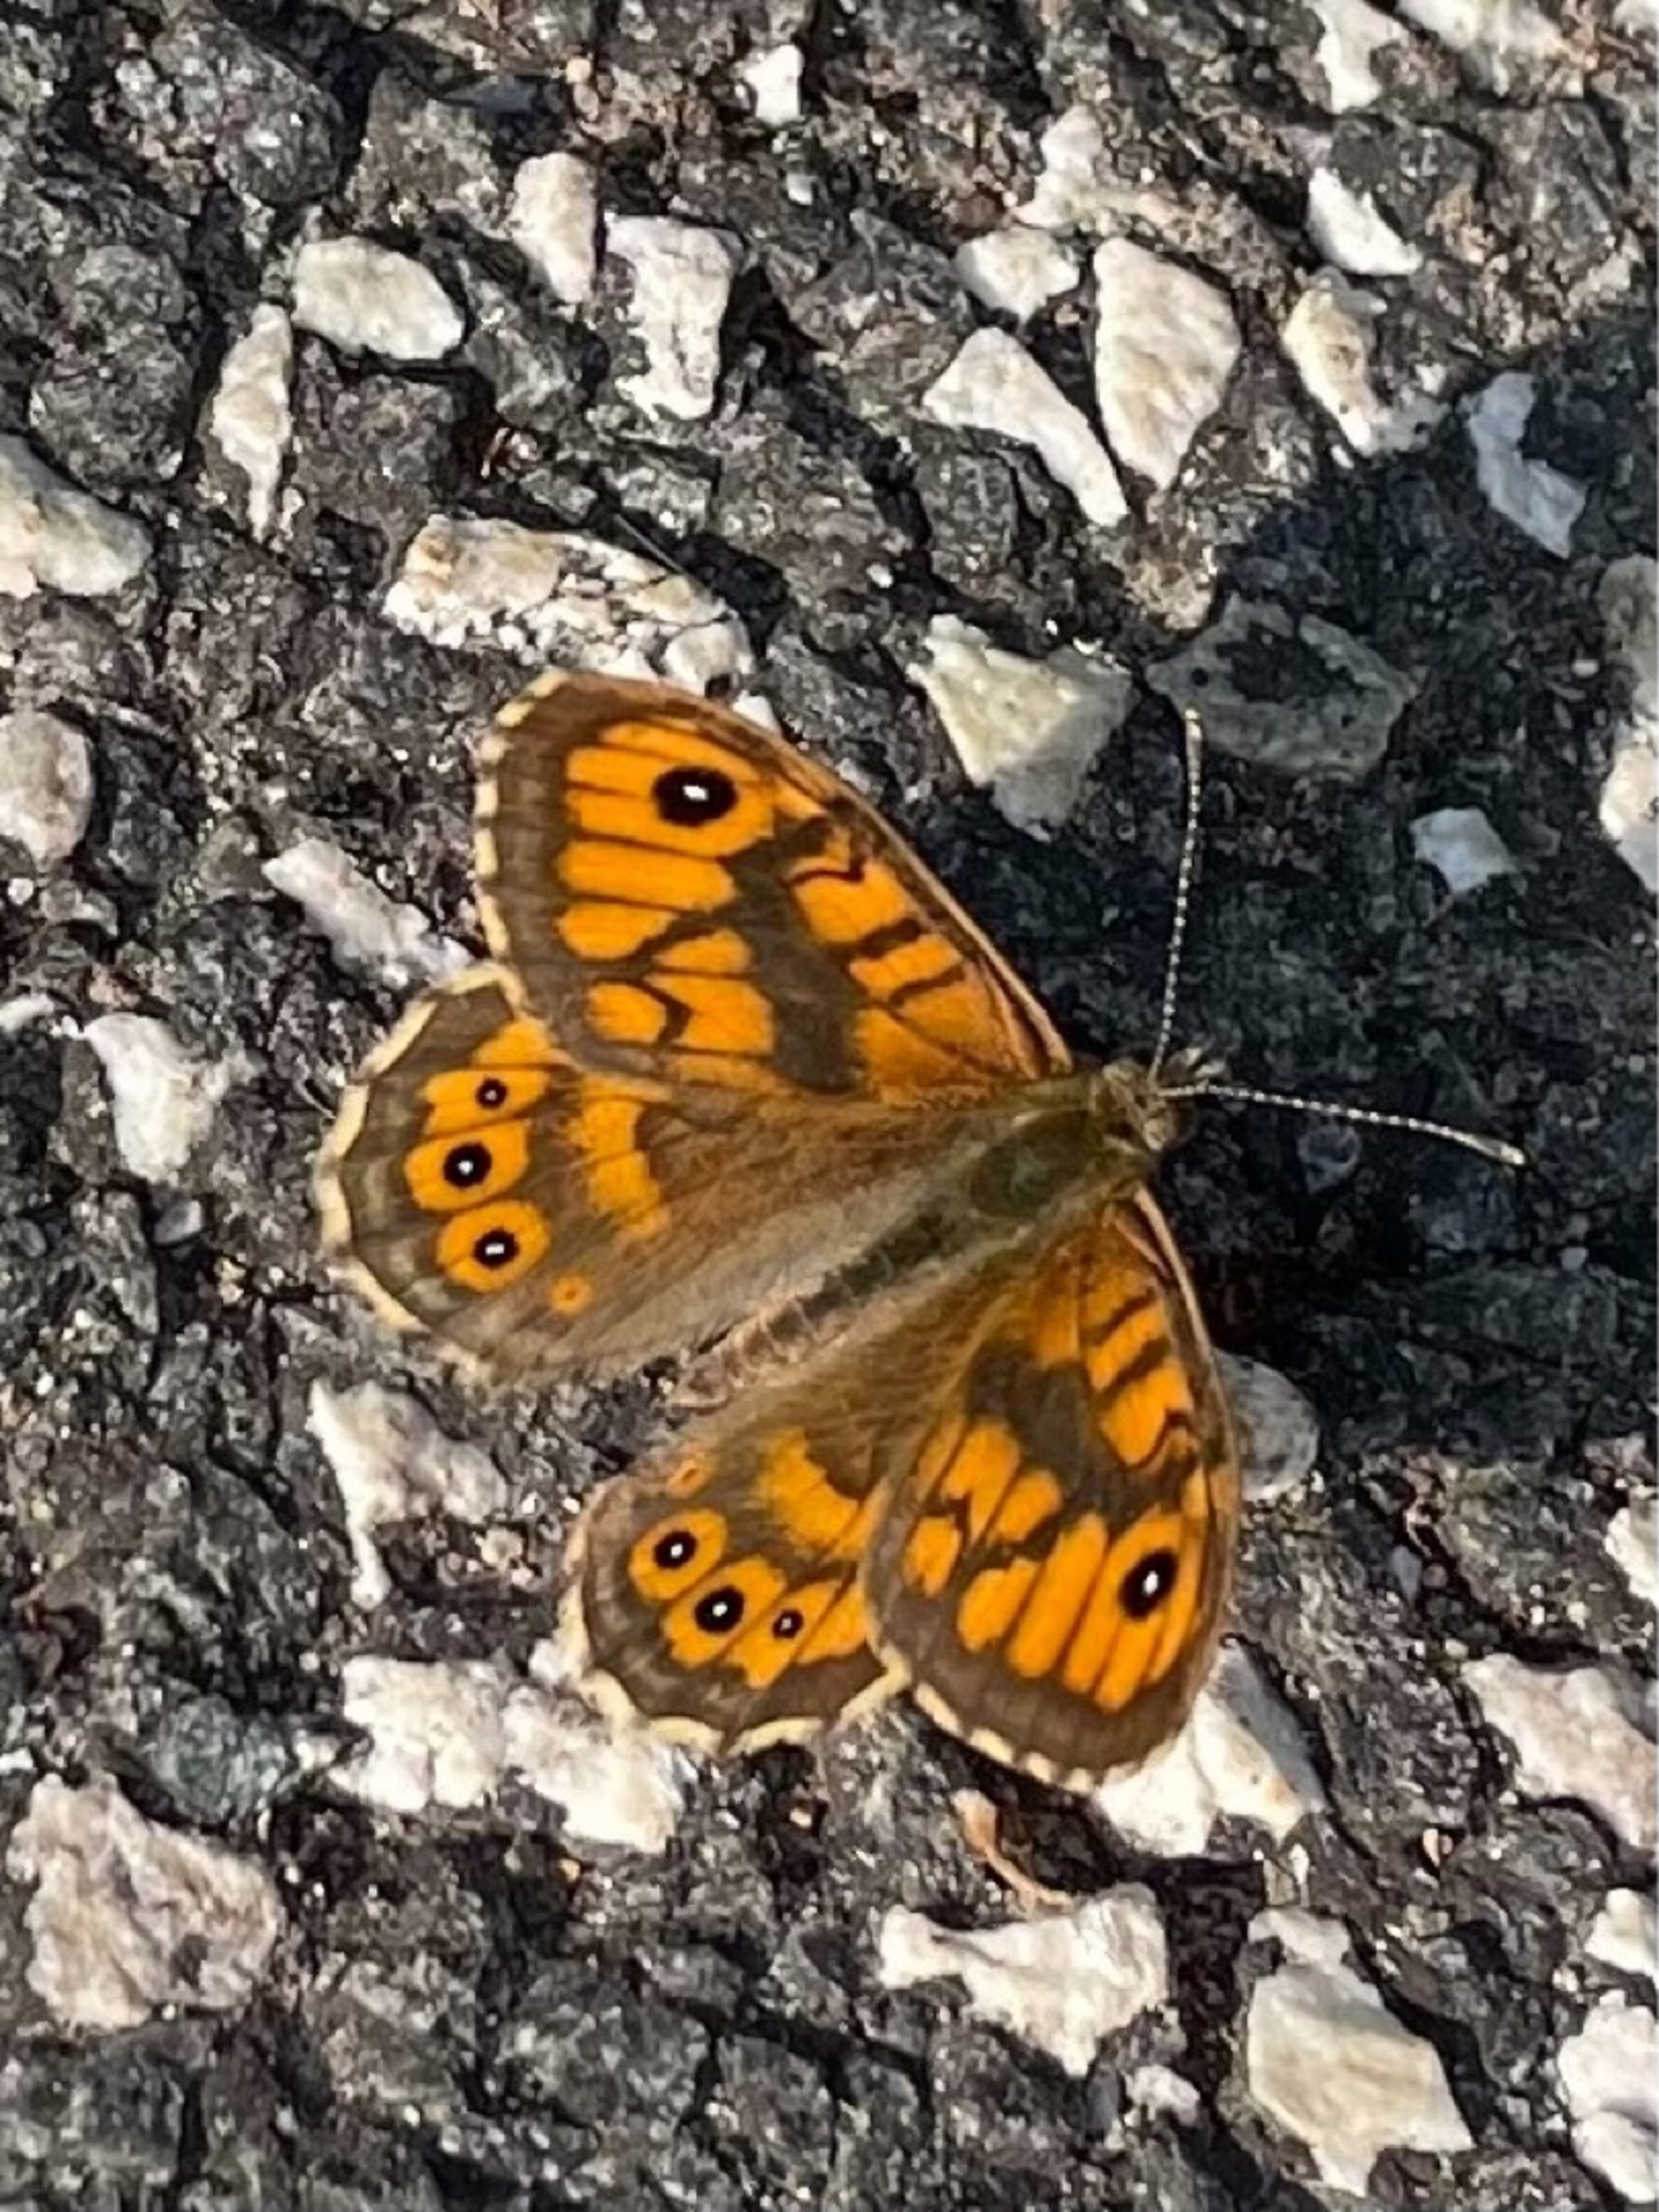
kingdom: Animalia
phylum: Arthropoda
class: Insecta
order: Lepidoptera
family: Nymphalidae
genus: Pararge
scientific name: Pararge Lasiommata megera
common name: Vejrandøje
